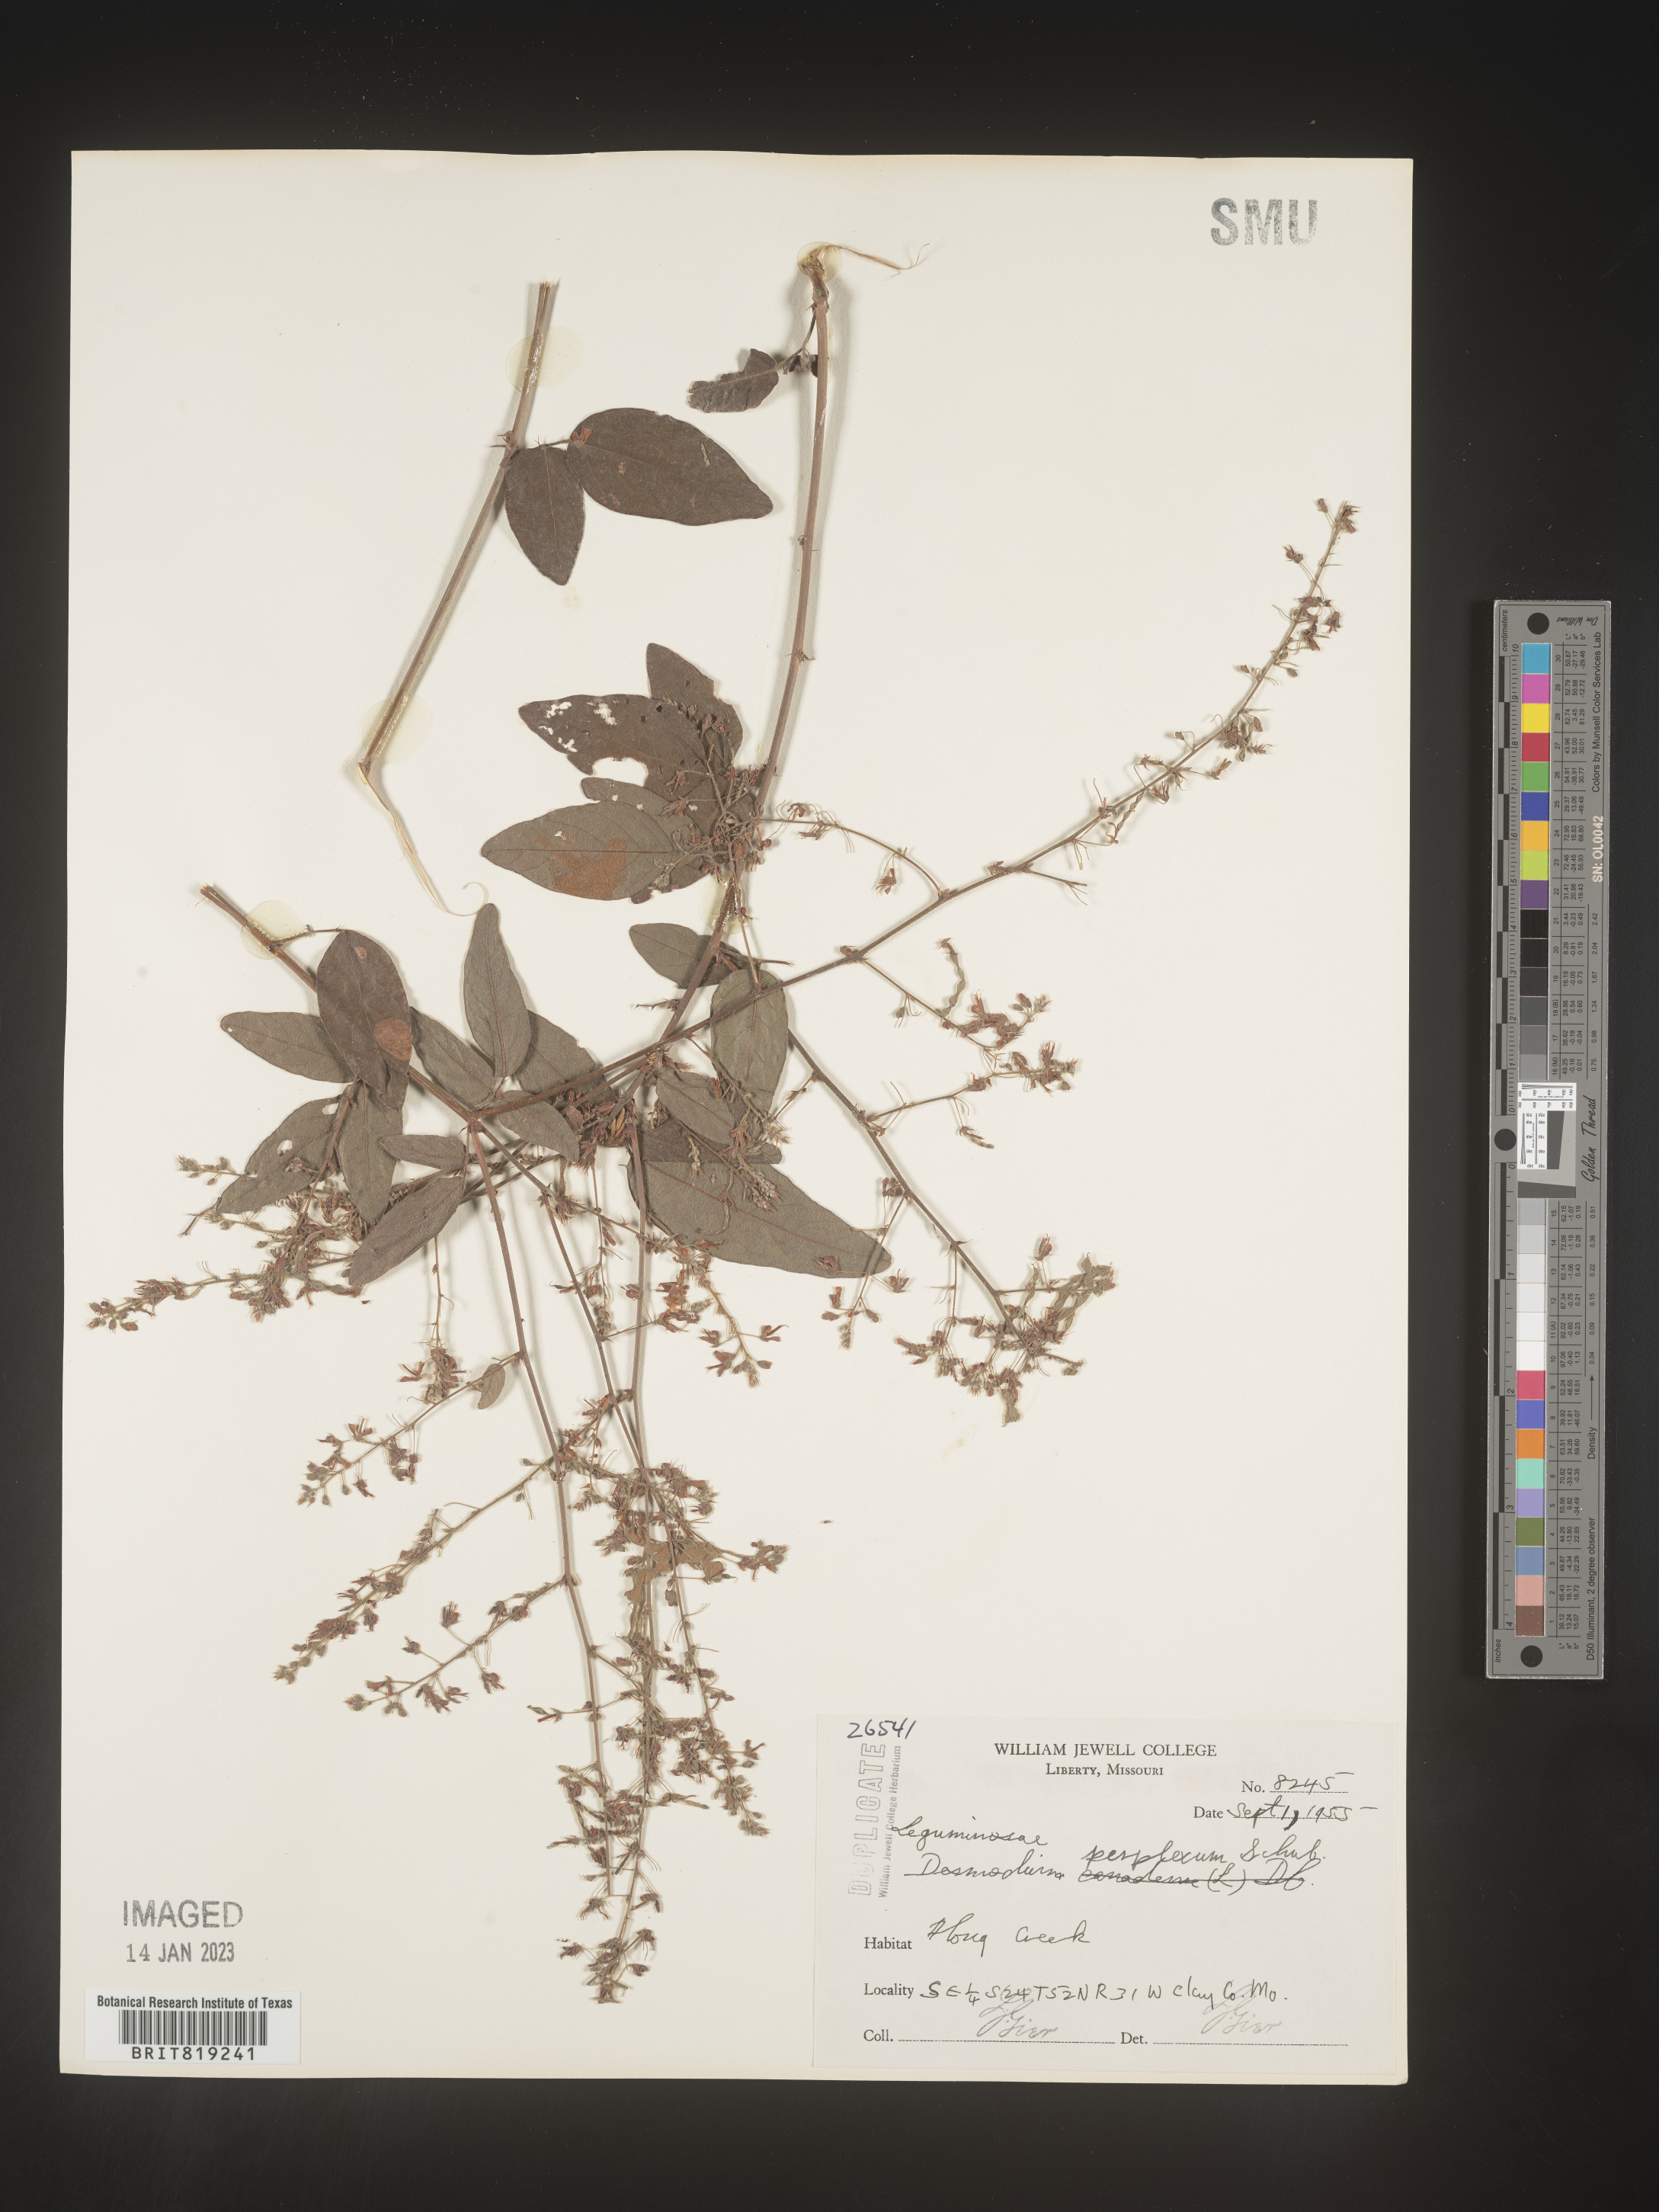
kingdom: Plantae
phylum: Tracheophyta
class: Magnoliopsida
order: Fabales
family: Fabaceae
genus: Desmodium
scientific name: Desmodium perplexum
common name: Perplexed tick trefoil
